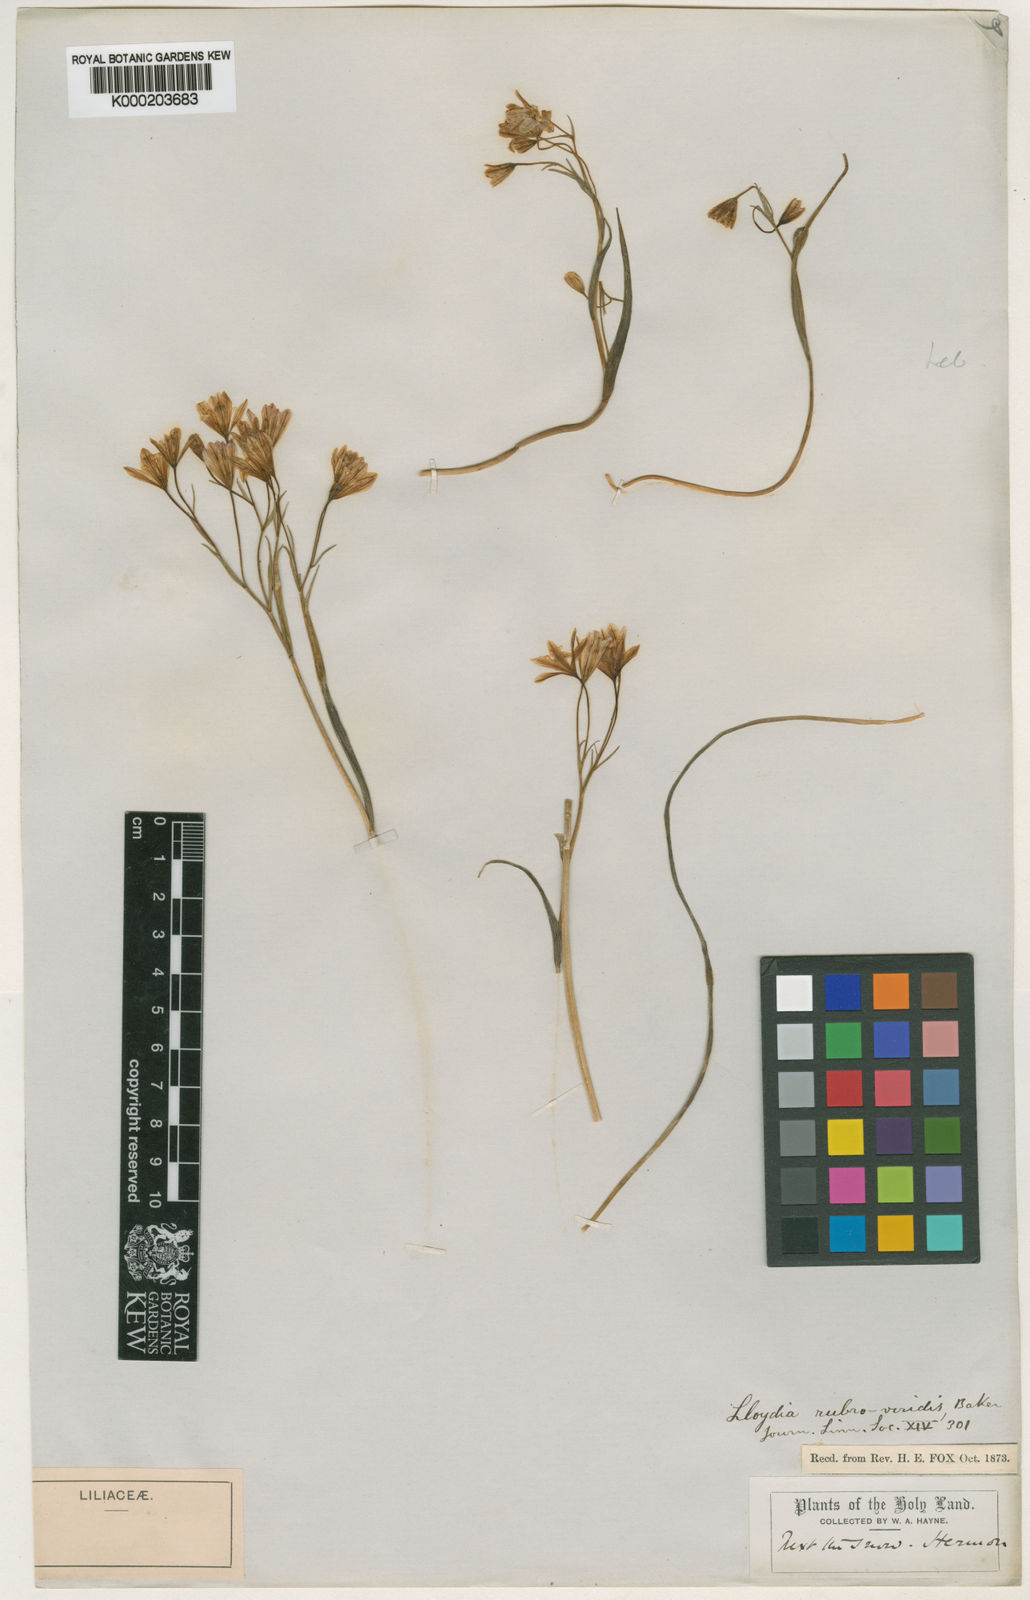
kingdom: Plantae
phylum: Tracheophyta
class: Liliopsida
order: Liliales
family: Liliaceae
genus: Gagea
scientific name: Gagea libanotica
